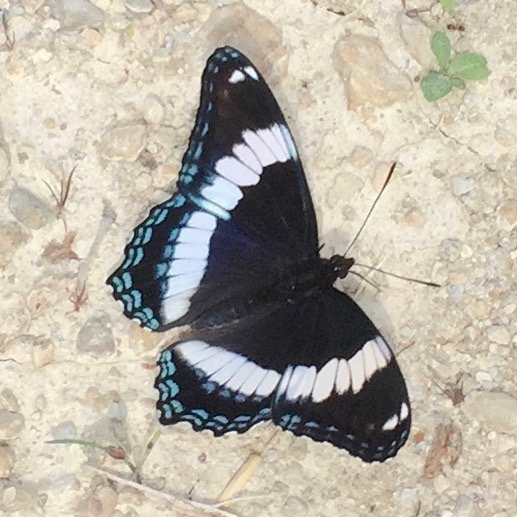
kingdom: Animalia
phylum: Arthropoda
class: Insecta
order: Lepidoptera
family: Nymphalidae
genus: Limenitis
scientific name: Limenitis arthemis
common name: Red-spotted Admiral
